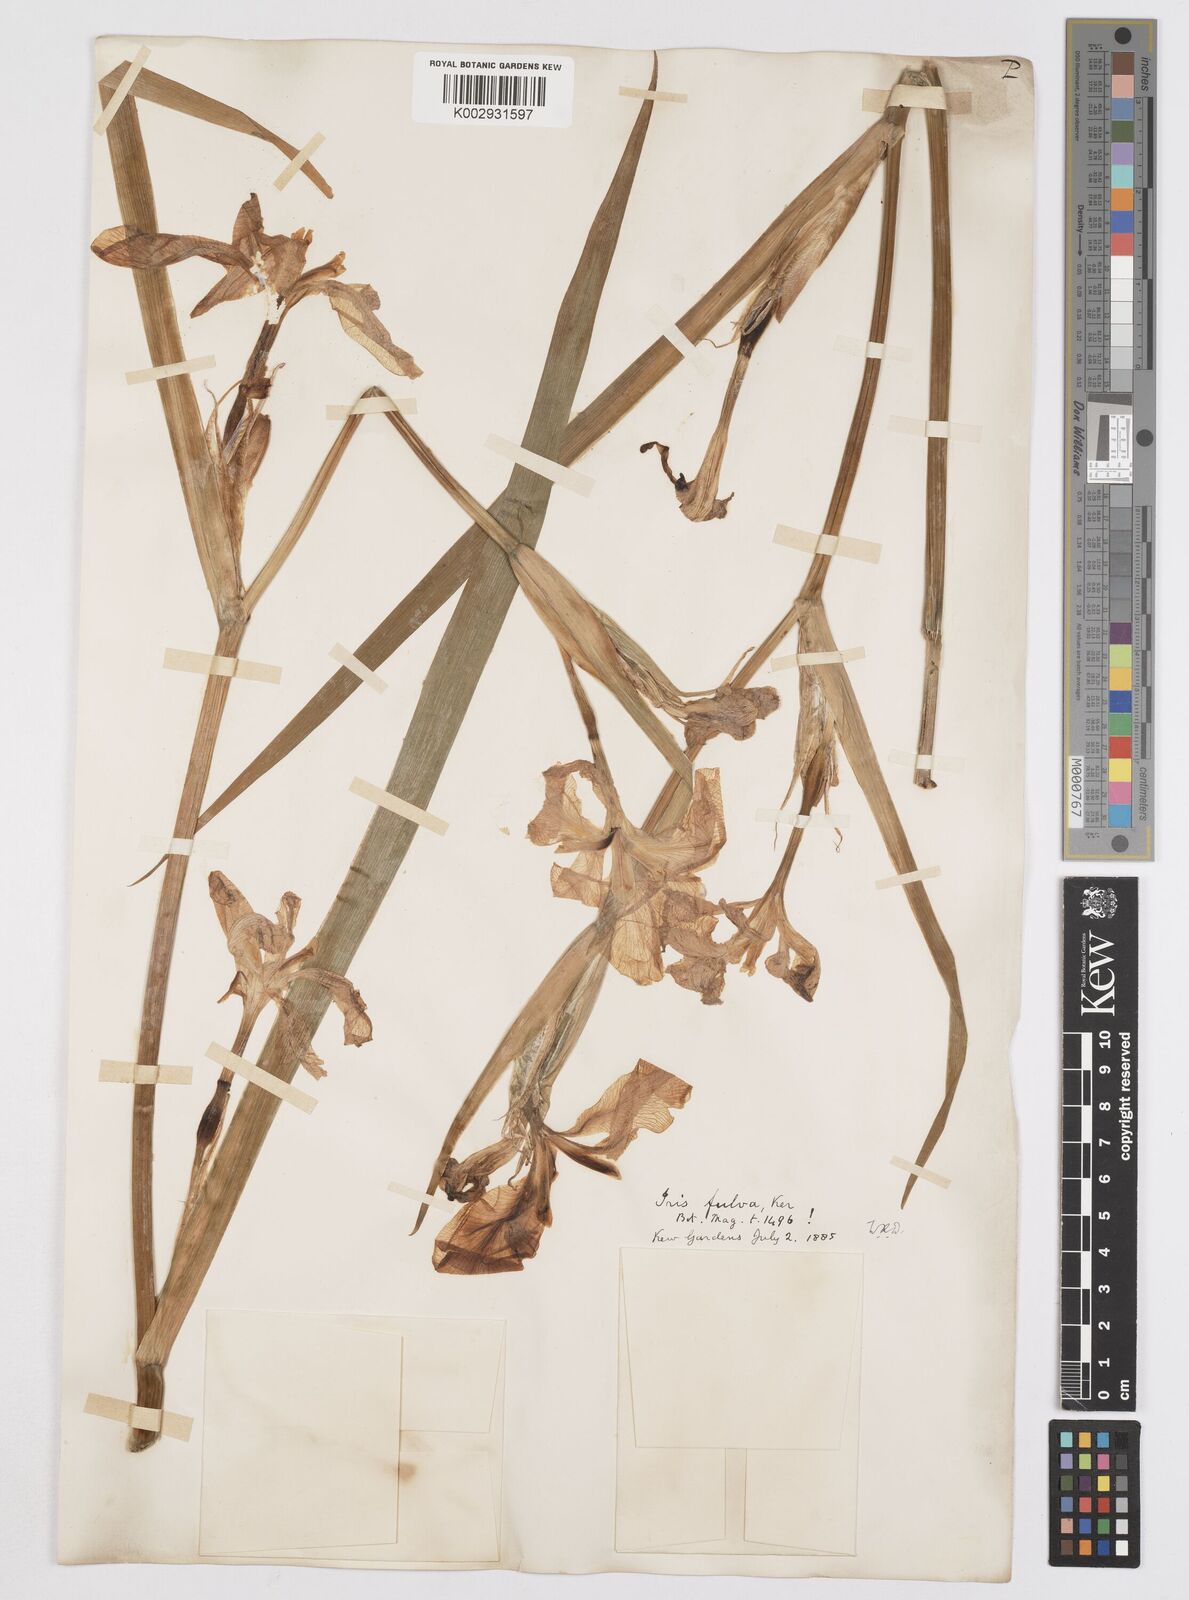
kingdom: Plantae
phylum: Tracheophyta
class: Liliopsida
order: Asparagales
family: Iridaceae
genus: Iris
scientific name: Iris fulva
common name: Copper iris
